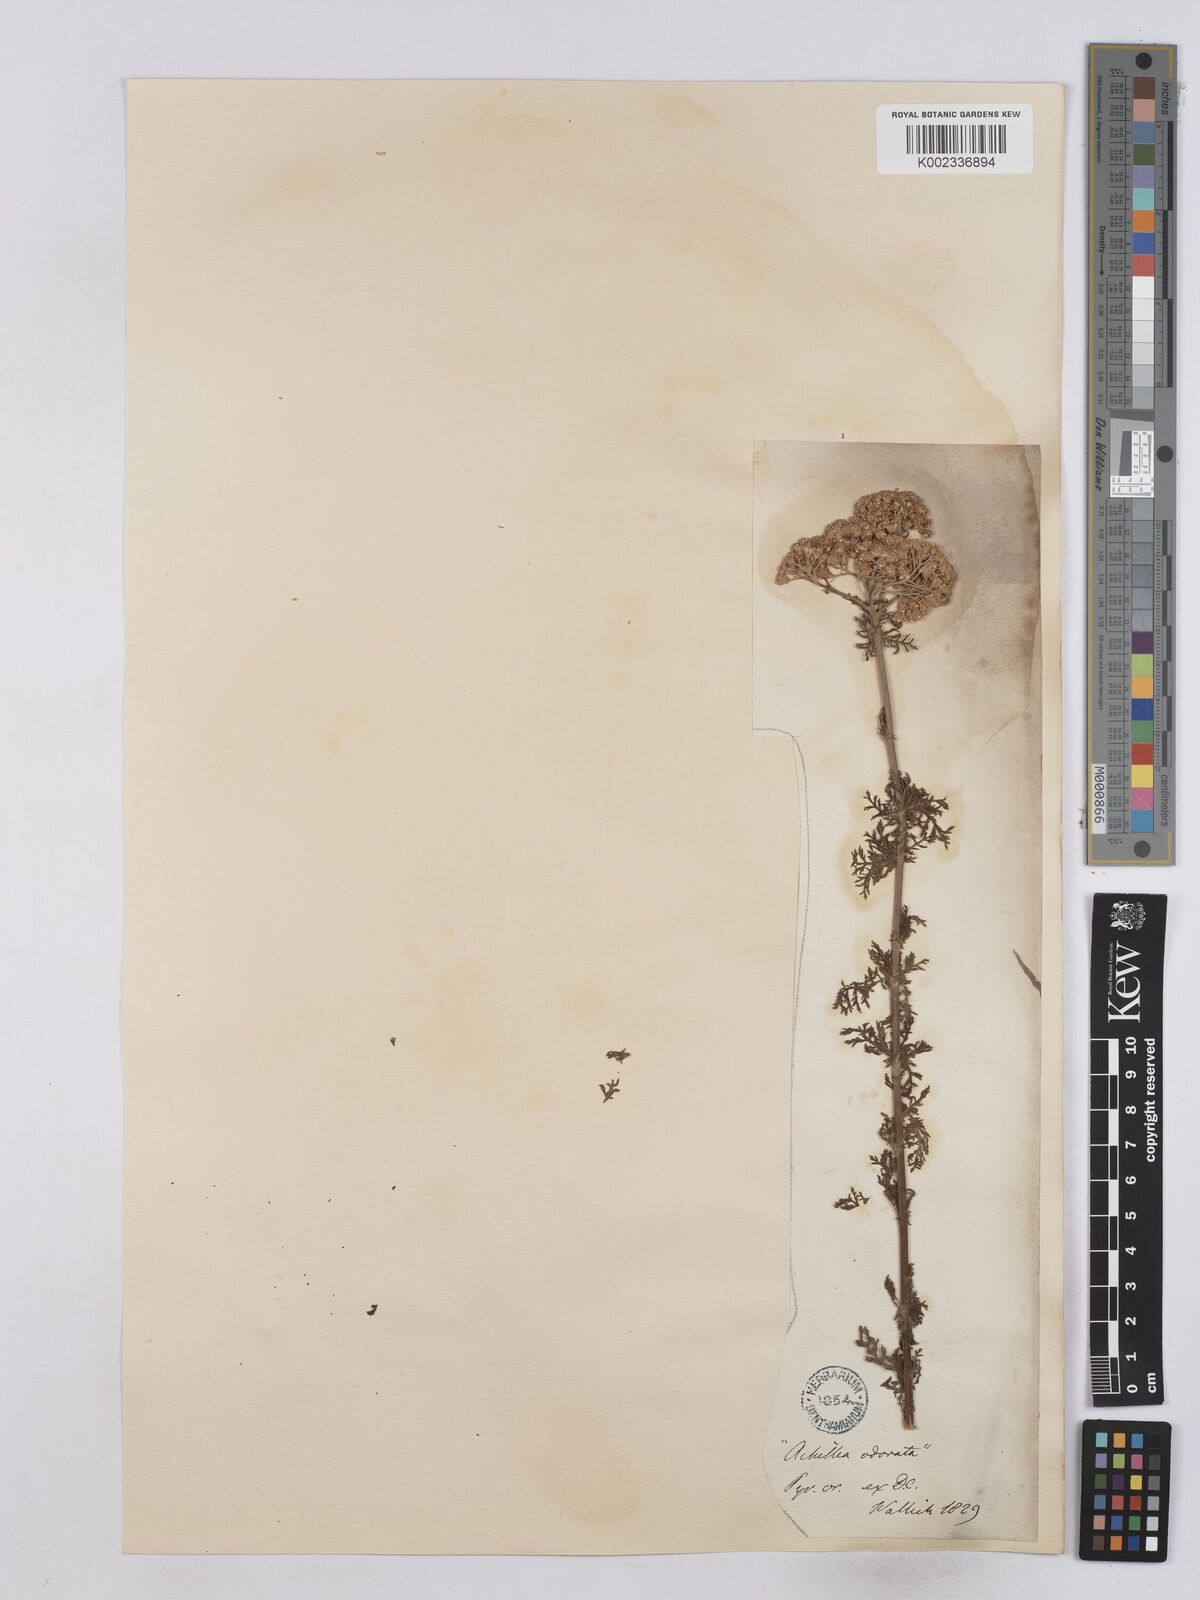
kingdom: Plantae
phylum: Tracheophyta
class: Magnoliopsida
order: Asterales
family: Asteraceae
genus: Achillea
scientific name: Achillea odorata
